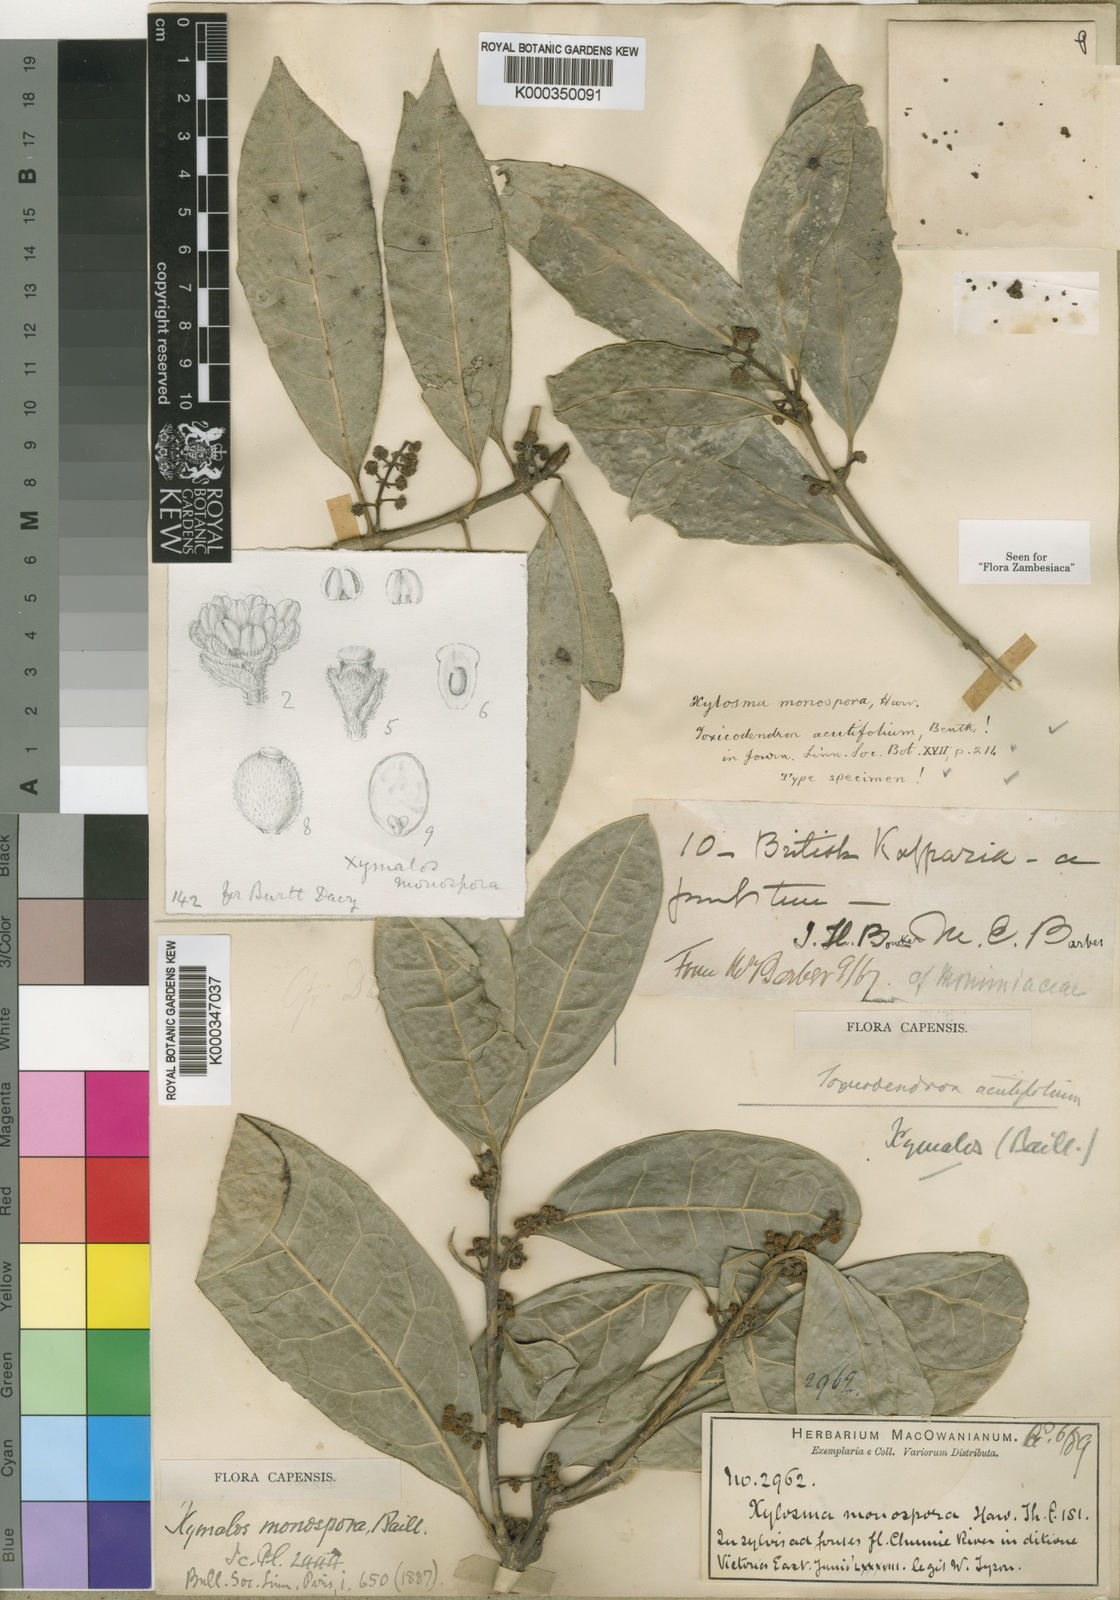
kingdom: Plantae
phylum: Tracheophyta
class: Magnoliopsida
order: Laurales
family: Monimiaceae
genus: Xymalos
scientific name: Xymalos monospora
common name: Lemonwood
